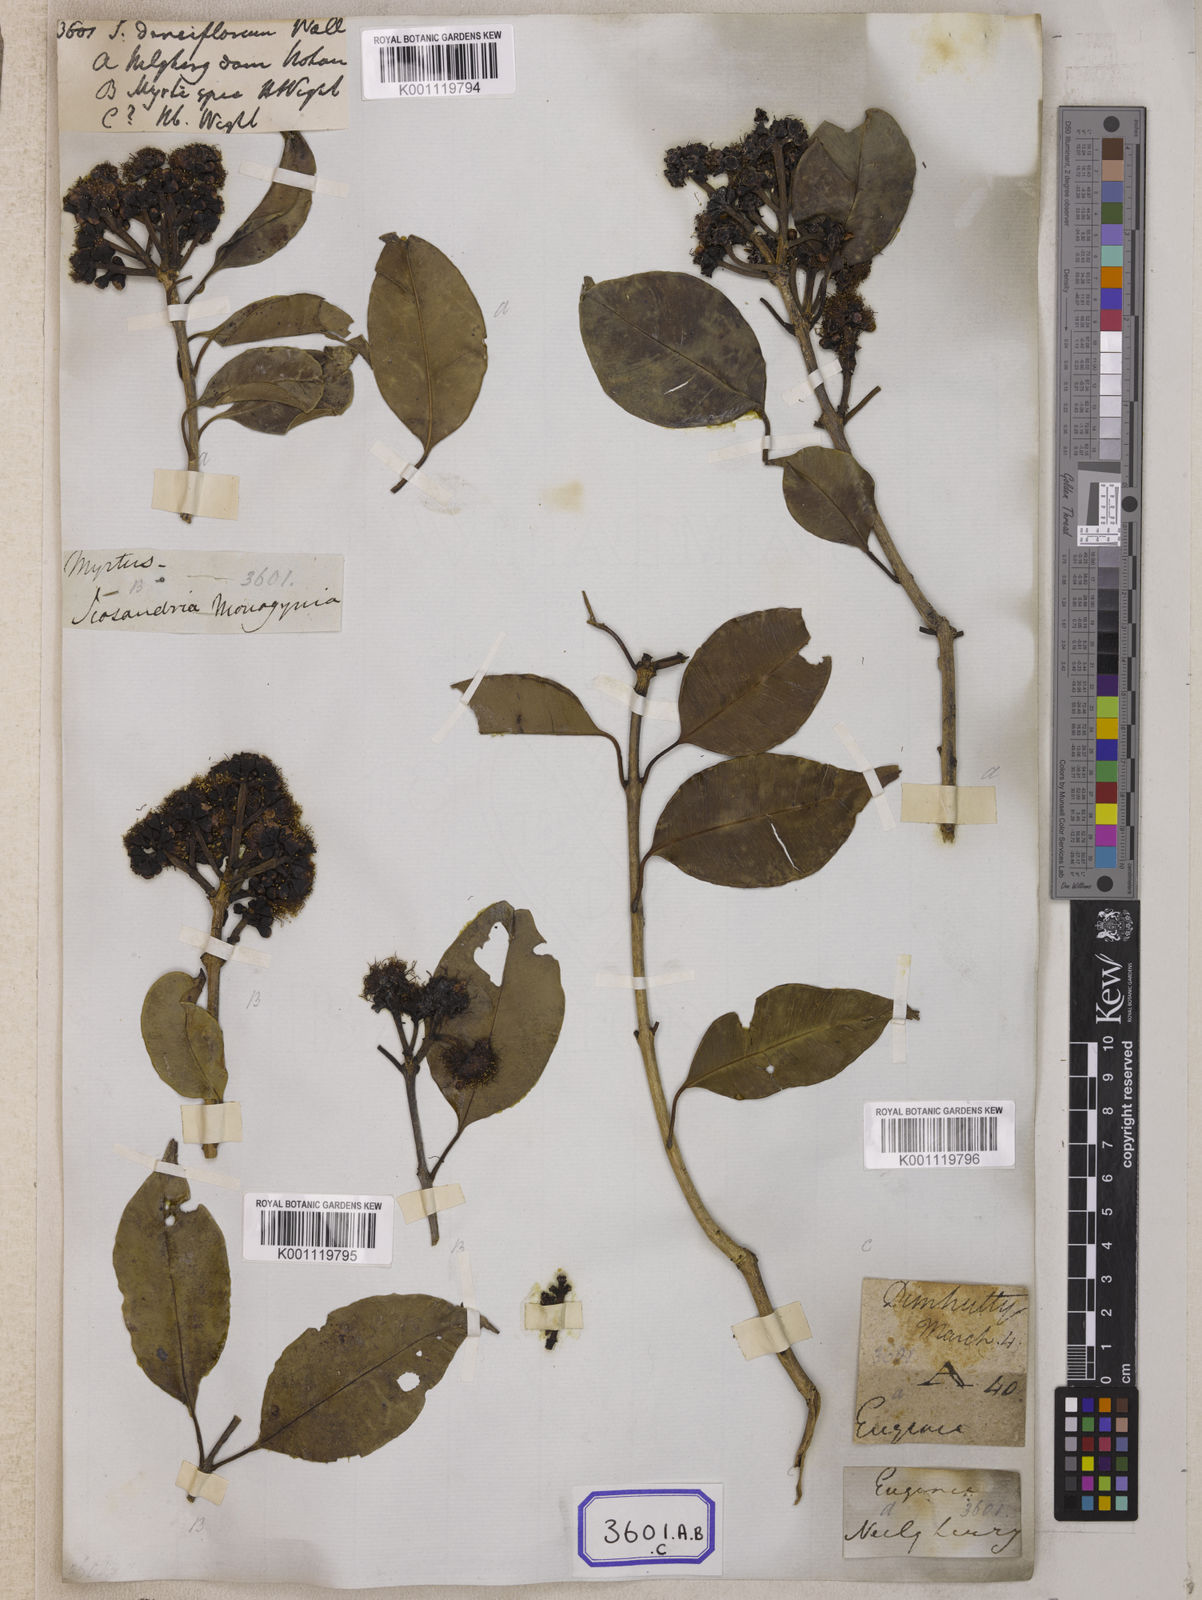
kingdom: Plantae
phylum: Tracheophyta
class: Magnoliopsida
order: Myrtales
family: Myrtaceae
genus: Syzygium
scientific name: Syzygium
